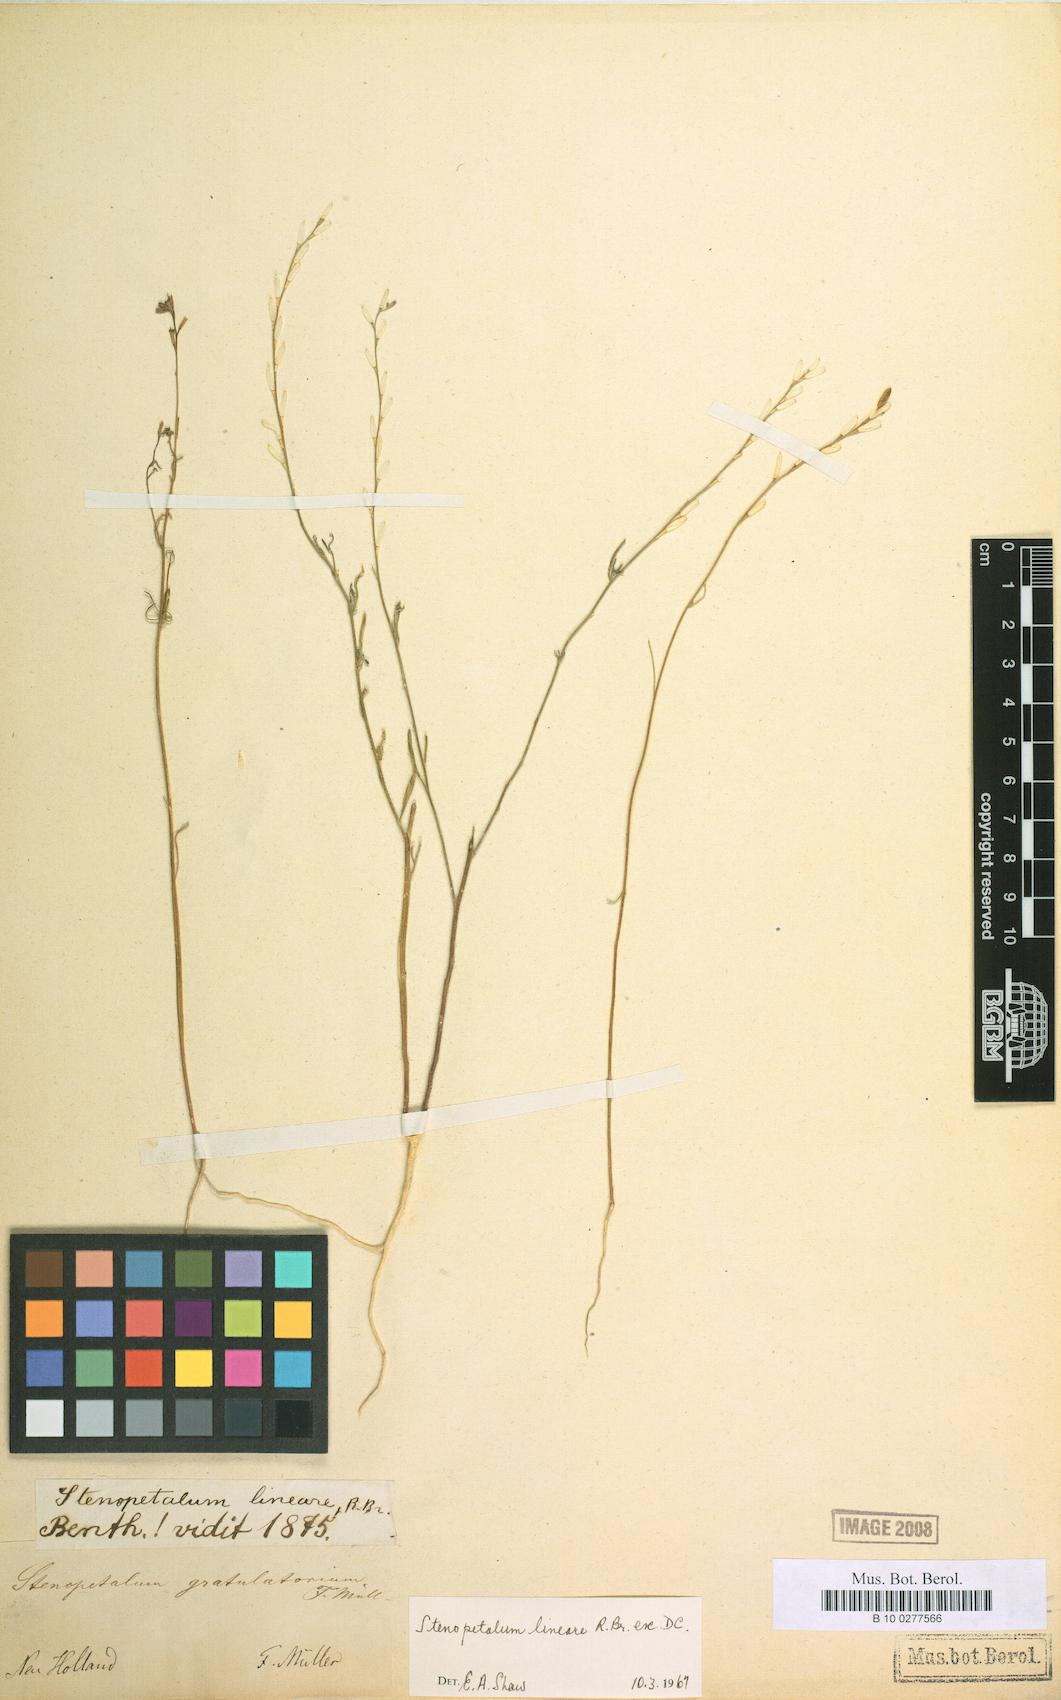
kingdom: Plantae
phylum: Tracheophyta
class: Magnoliopsida
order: Brassicales
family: Brassicaceae
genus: Stenopetalum
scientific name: Stenopetalum lineare
